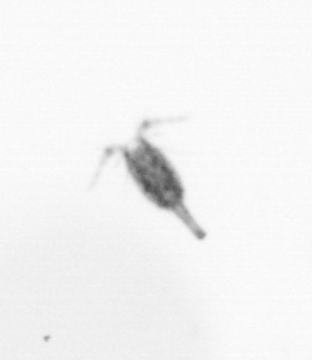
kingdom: Animalia
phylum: Arthropoda
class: Copepoda
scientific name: Copepoda
